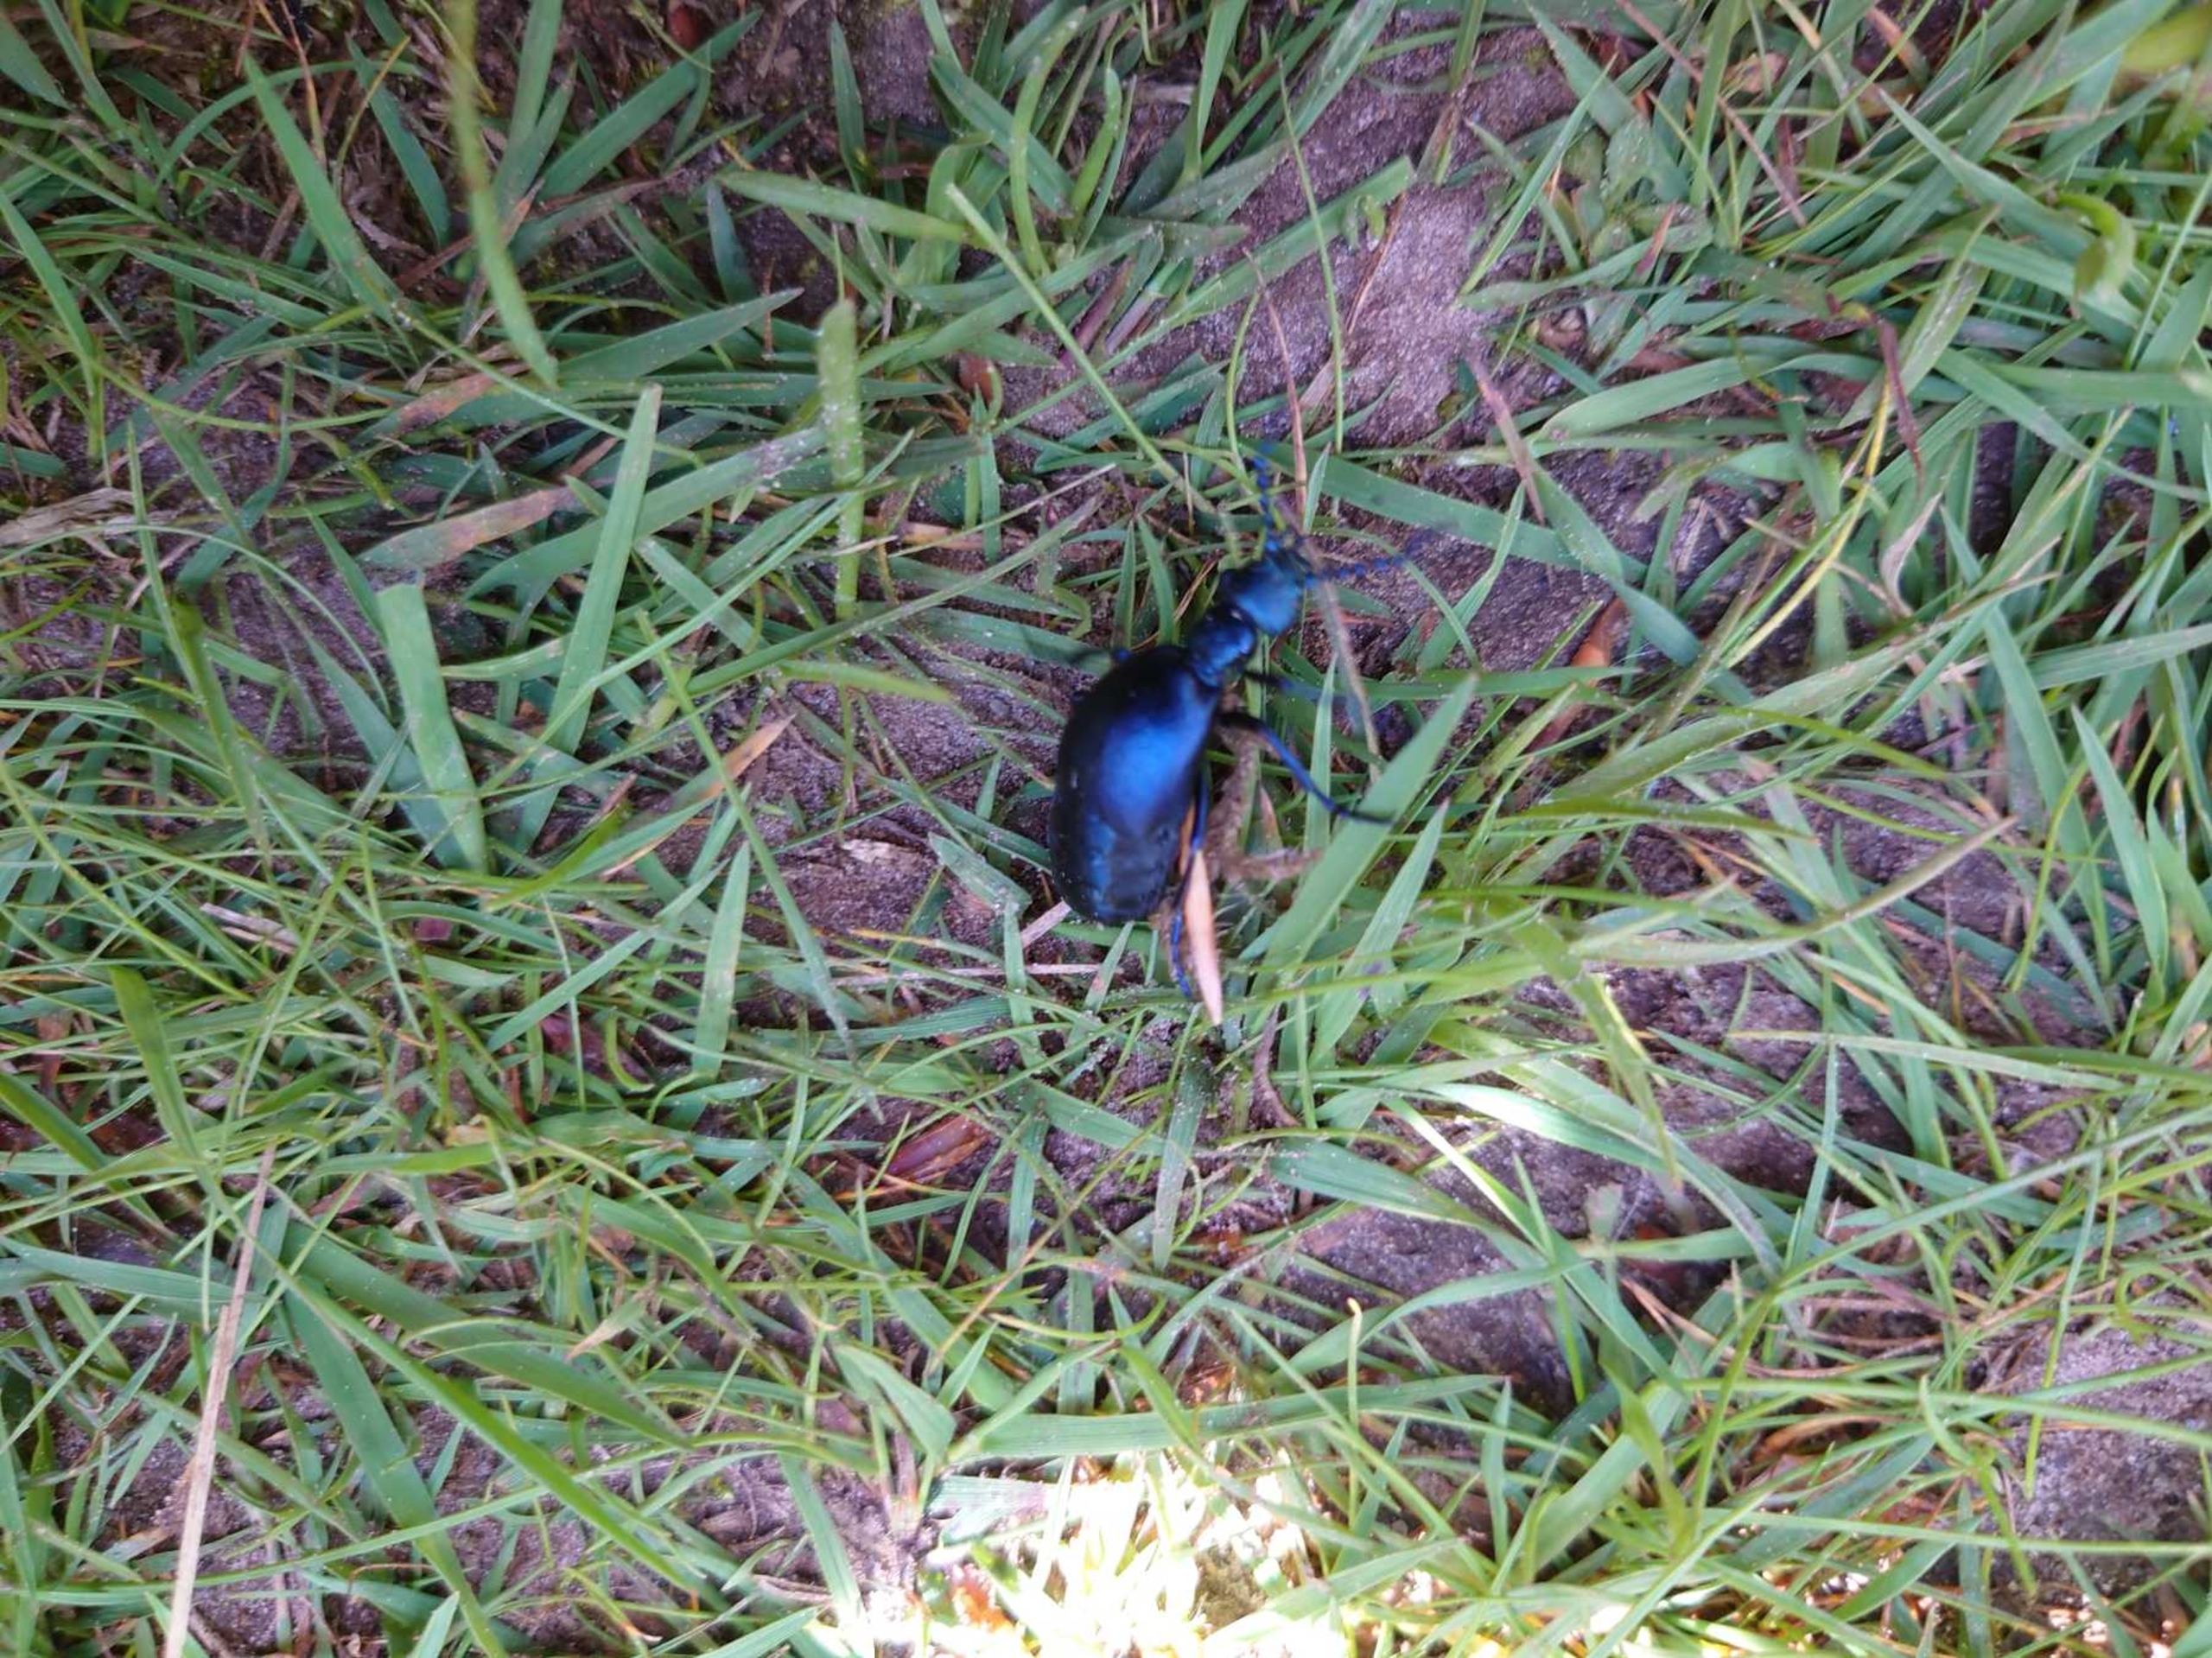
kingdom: Animalia
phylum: Arthropoda
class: Insecta
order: Coleoptera
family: Meloidae
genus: Meloe
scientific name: Meloe violaceus
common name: Blå oliebille
